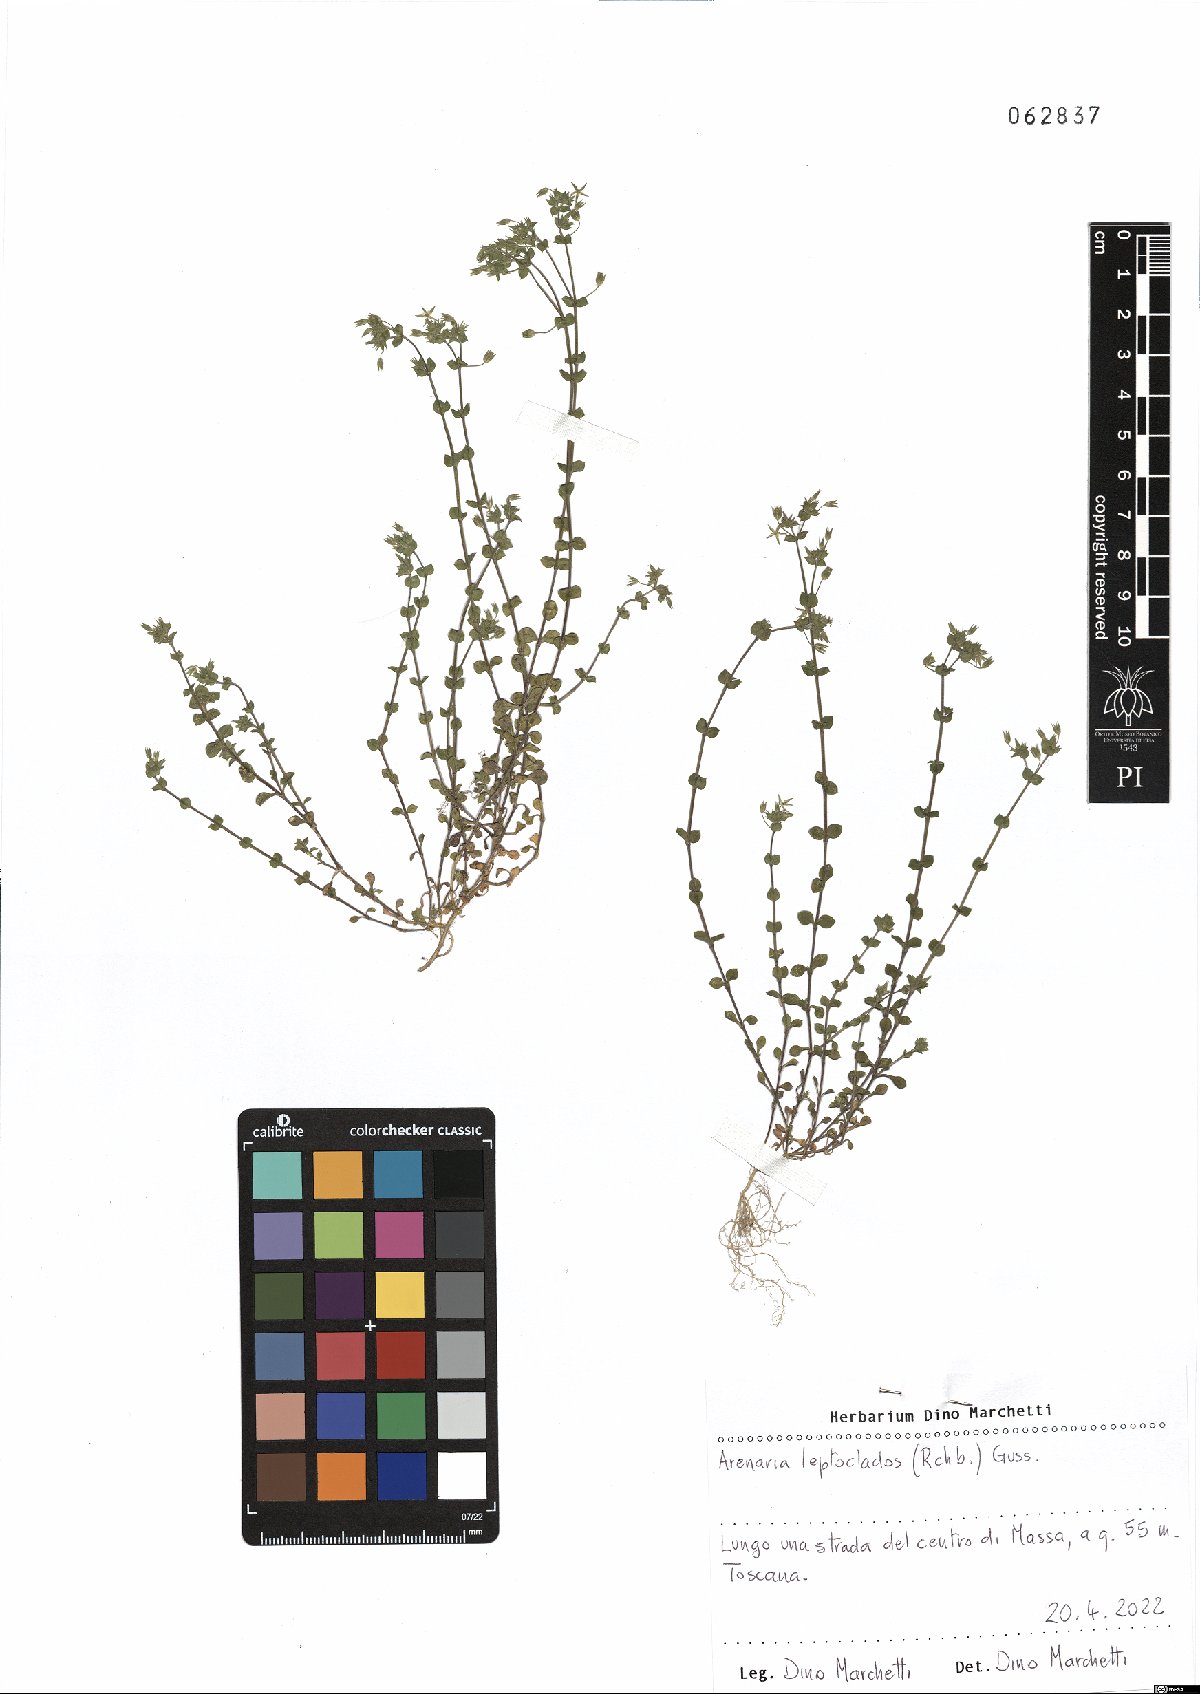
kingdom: Plantae
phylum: Tracheophyta
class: Magnoliopsida
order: Caryophyllales
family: Caryophyllaceae
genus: Arenaria
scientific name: Arenaria leptoclados
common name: Thyme-leaved sandwort
